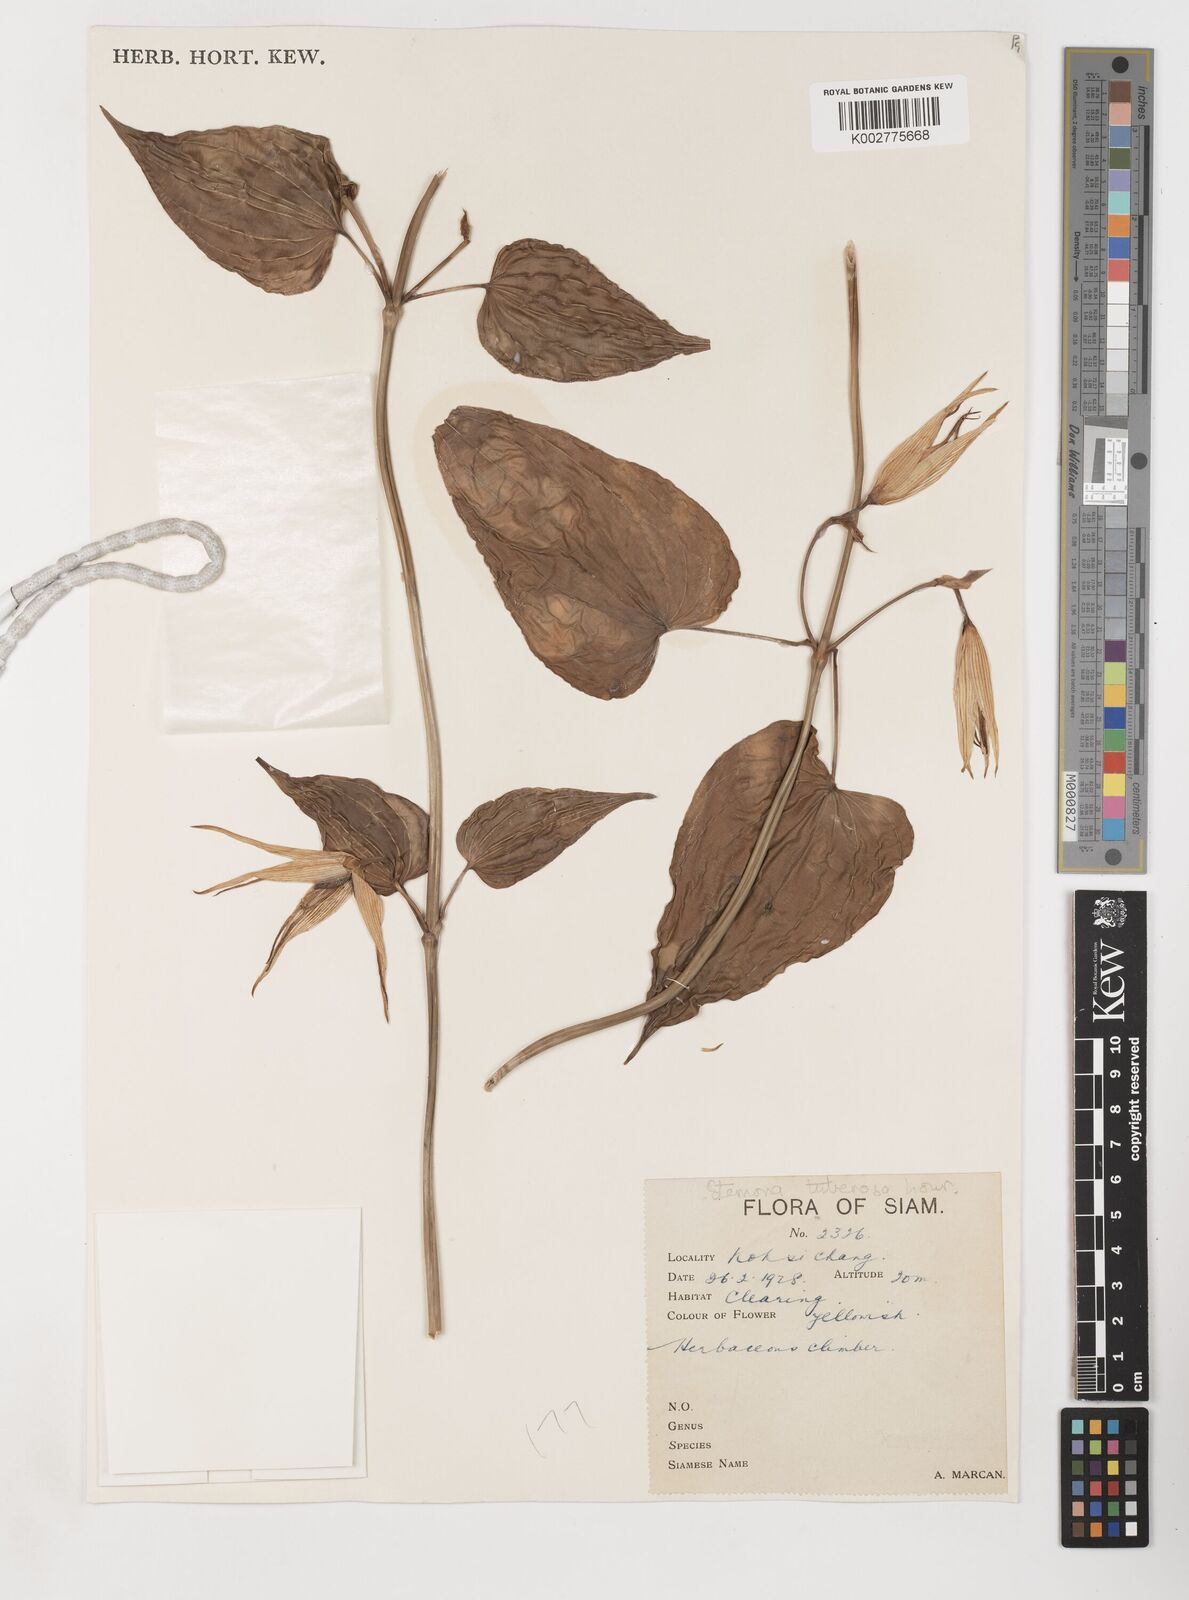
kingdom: Plantae
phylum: Tracheophyta
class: Liliopsida
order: Pandanales
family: Stemonaceae
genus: Stemona
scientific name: Stemona tuberosa
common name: Stemona
